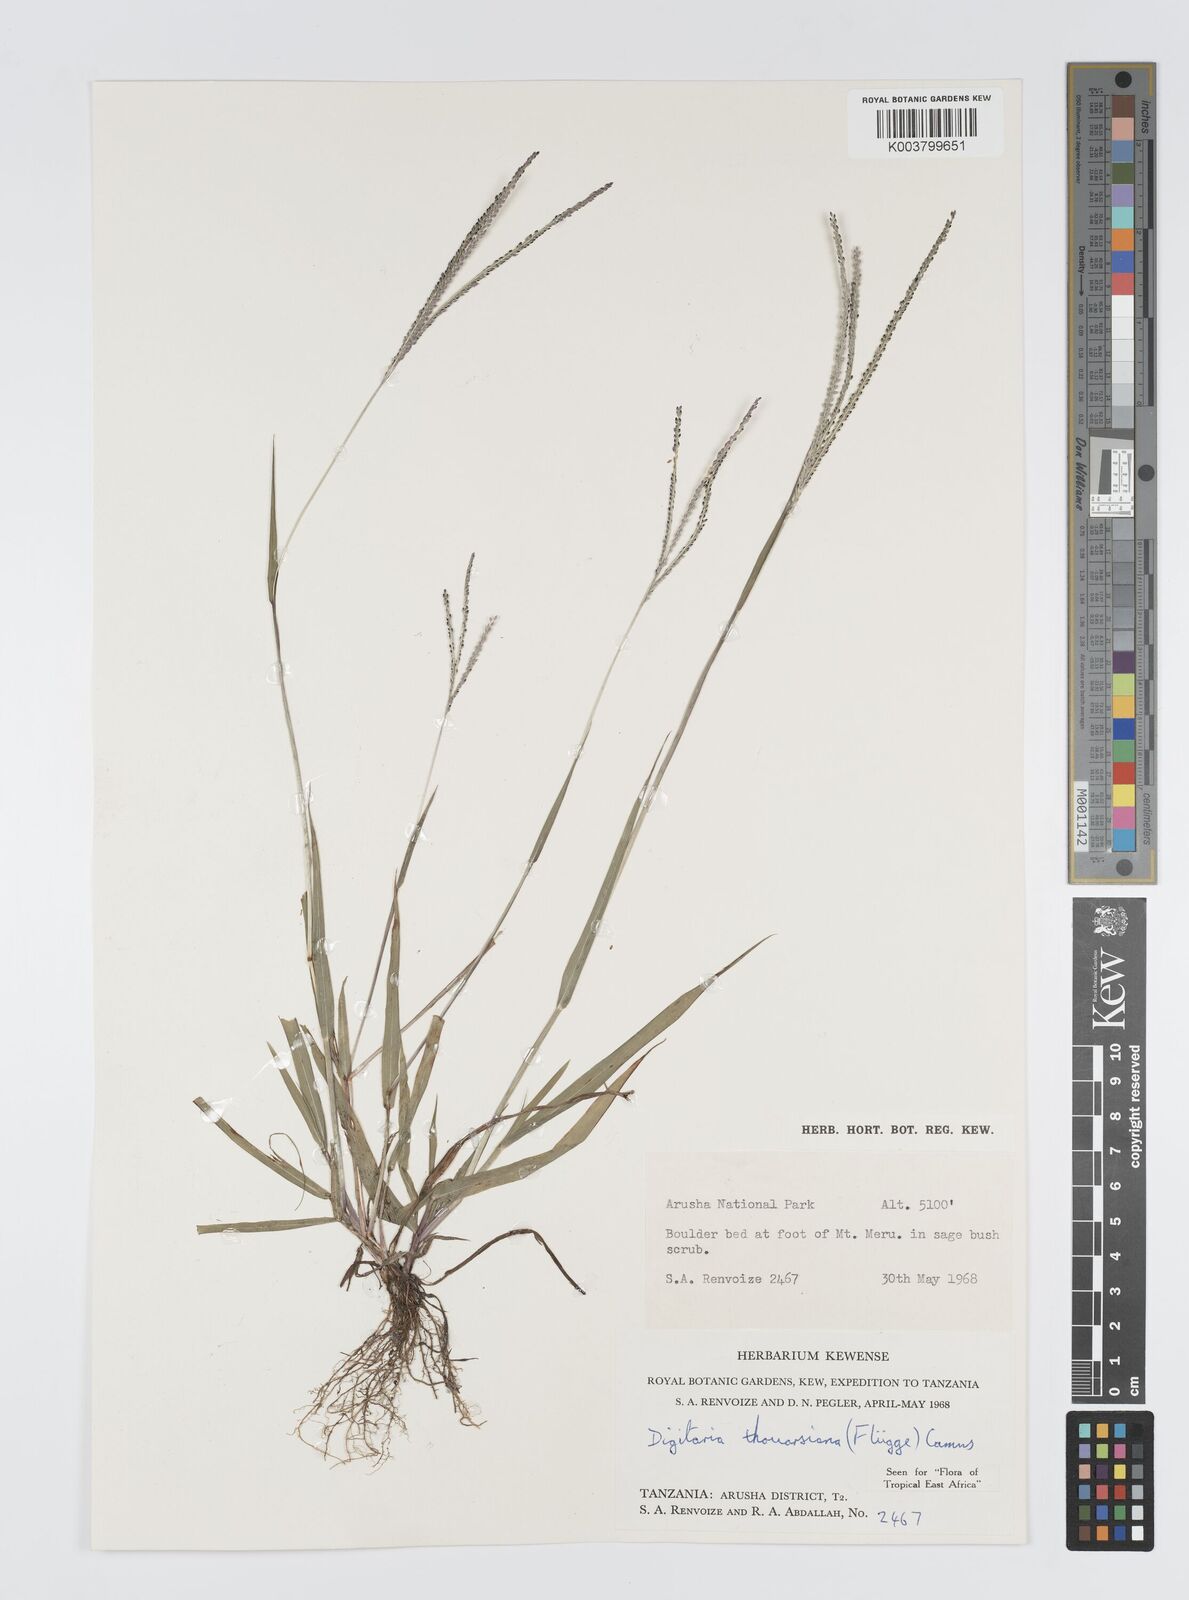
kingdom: Plantae
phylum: Tracheophyta
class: Liliopsida
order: Poales
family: Poaceae
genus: Digitaria
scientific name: Digitaria thouarsiana
